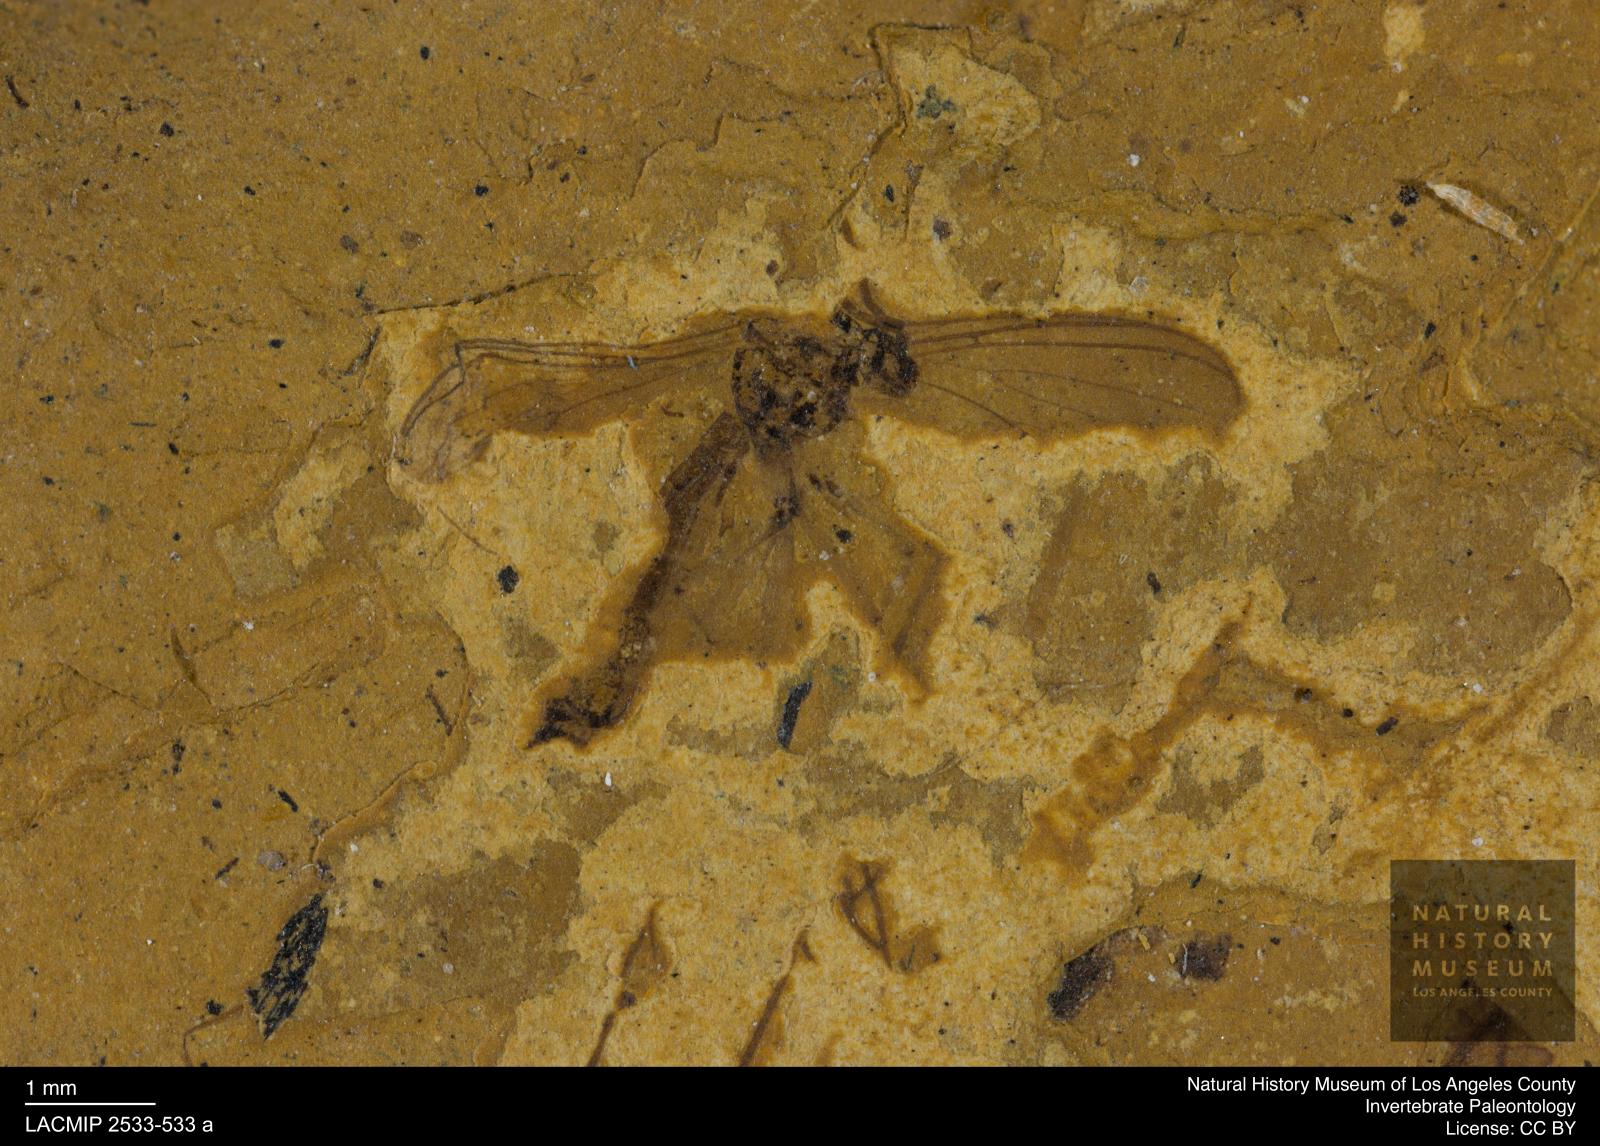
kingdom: Animalia
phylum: Arthropoda
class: Insecta
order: Diptera
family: Mycetophilidae
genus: Phthinia
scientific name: Phthinia longipoda
